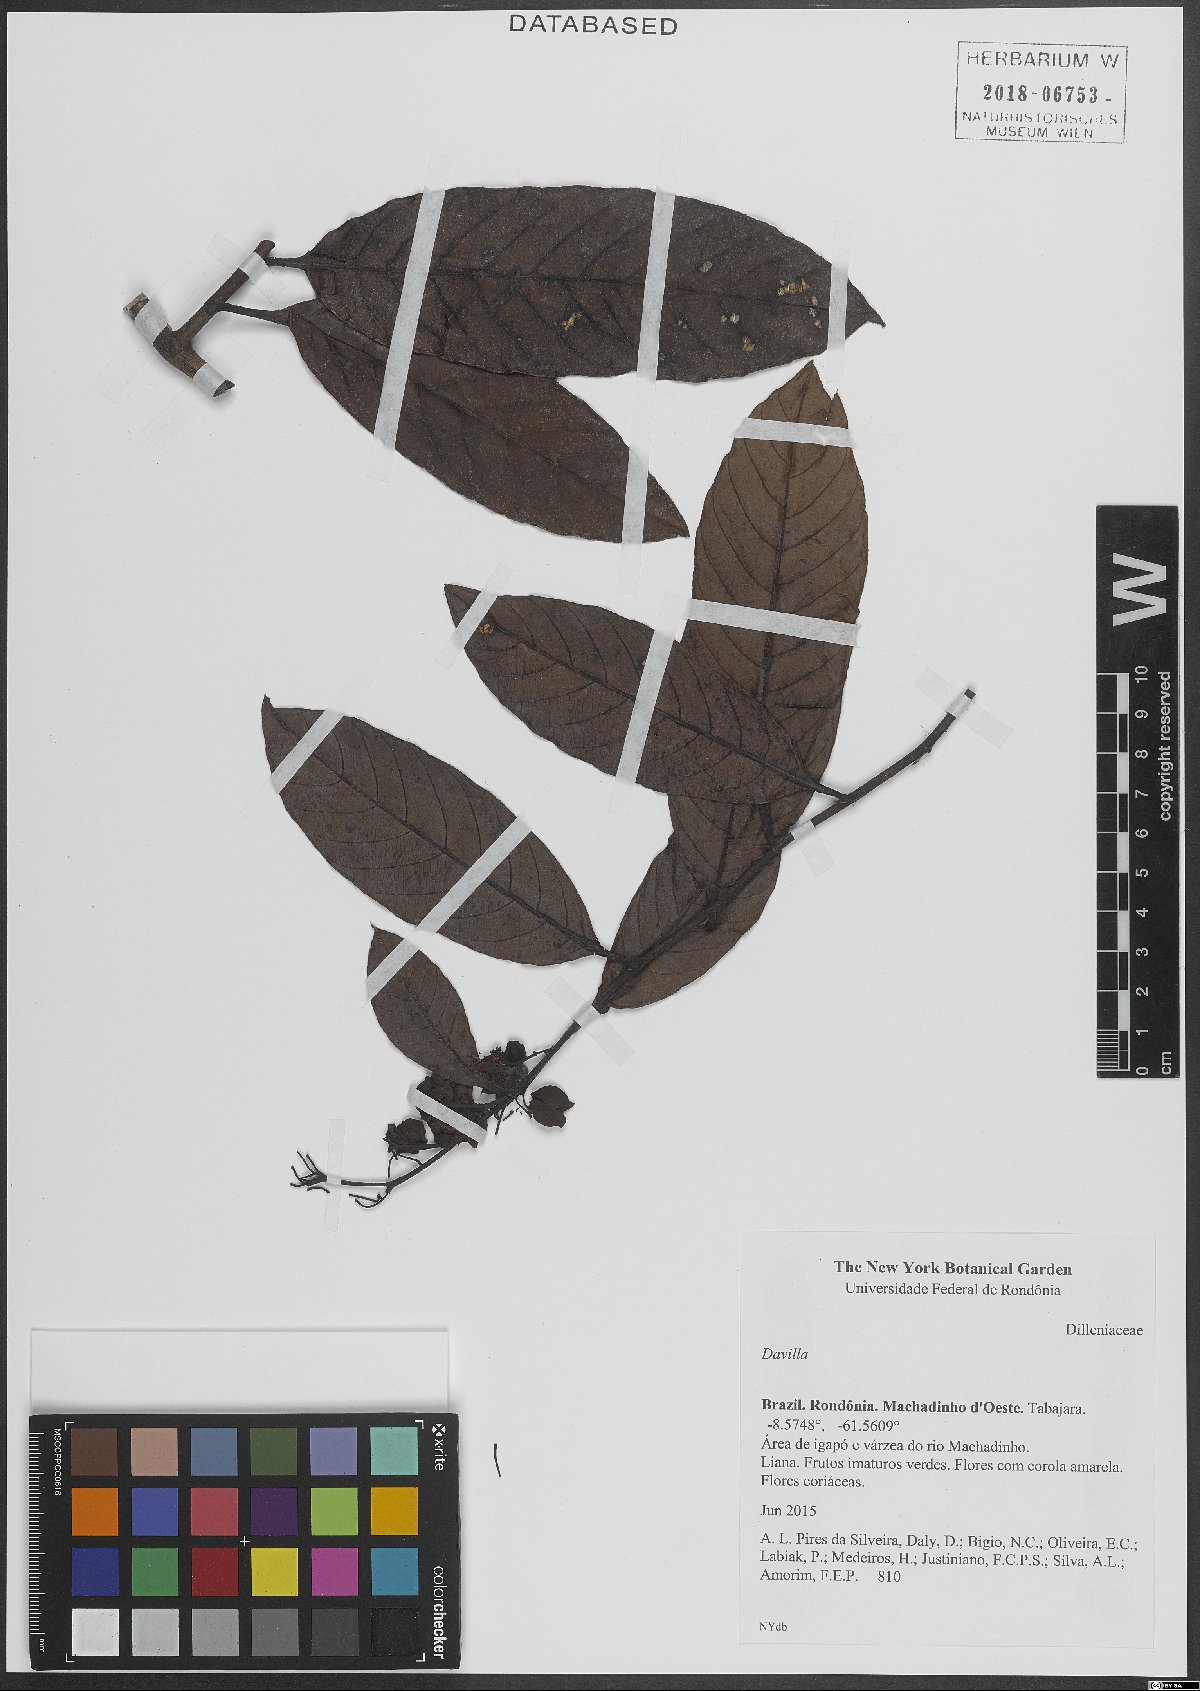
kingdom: Plantae
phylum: Tracheophyta
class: Magnoliopsida
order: Dilleniales
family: Dilleniaceae
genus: Davilla
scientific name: Davilla
